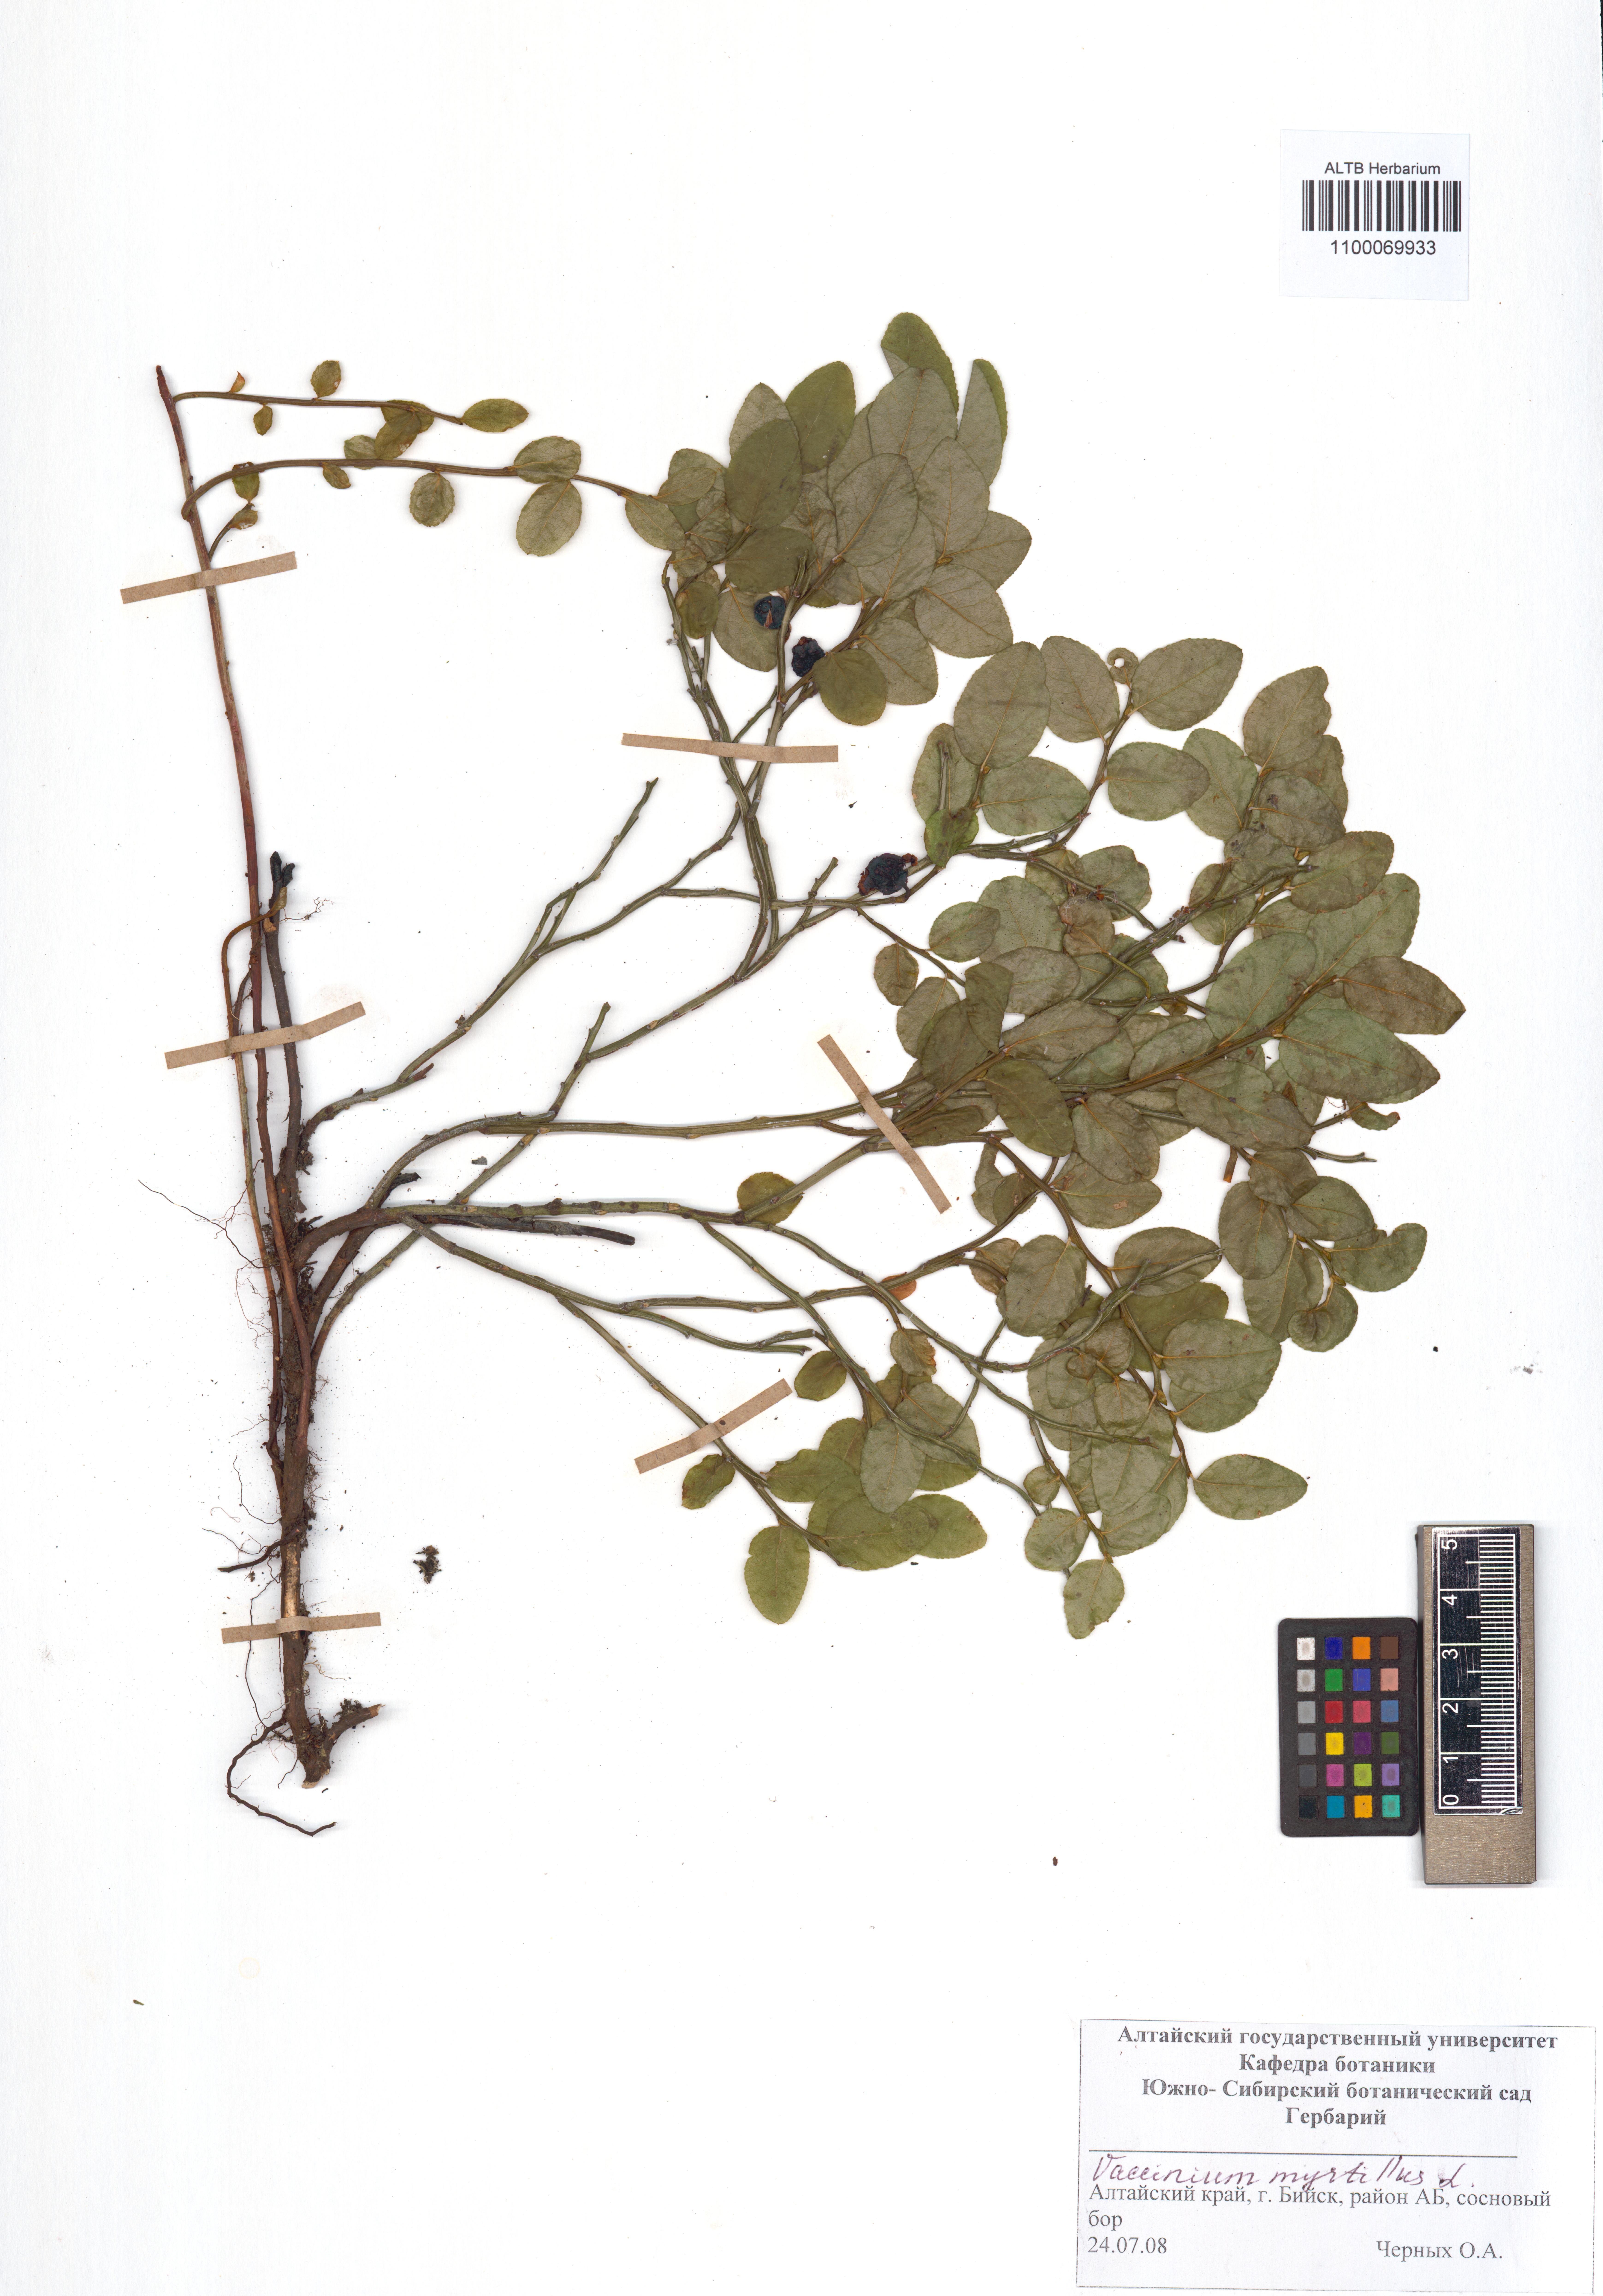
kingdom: Plantae
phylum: Tracheophyta
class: Magnoliopsida
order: Ericales
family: Ericaceae
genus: Vaccinium
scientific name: Vaccinium myrtillus
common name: Bilberry
